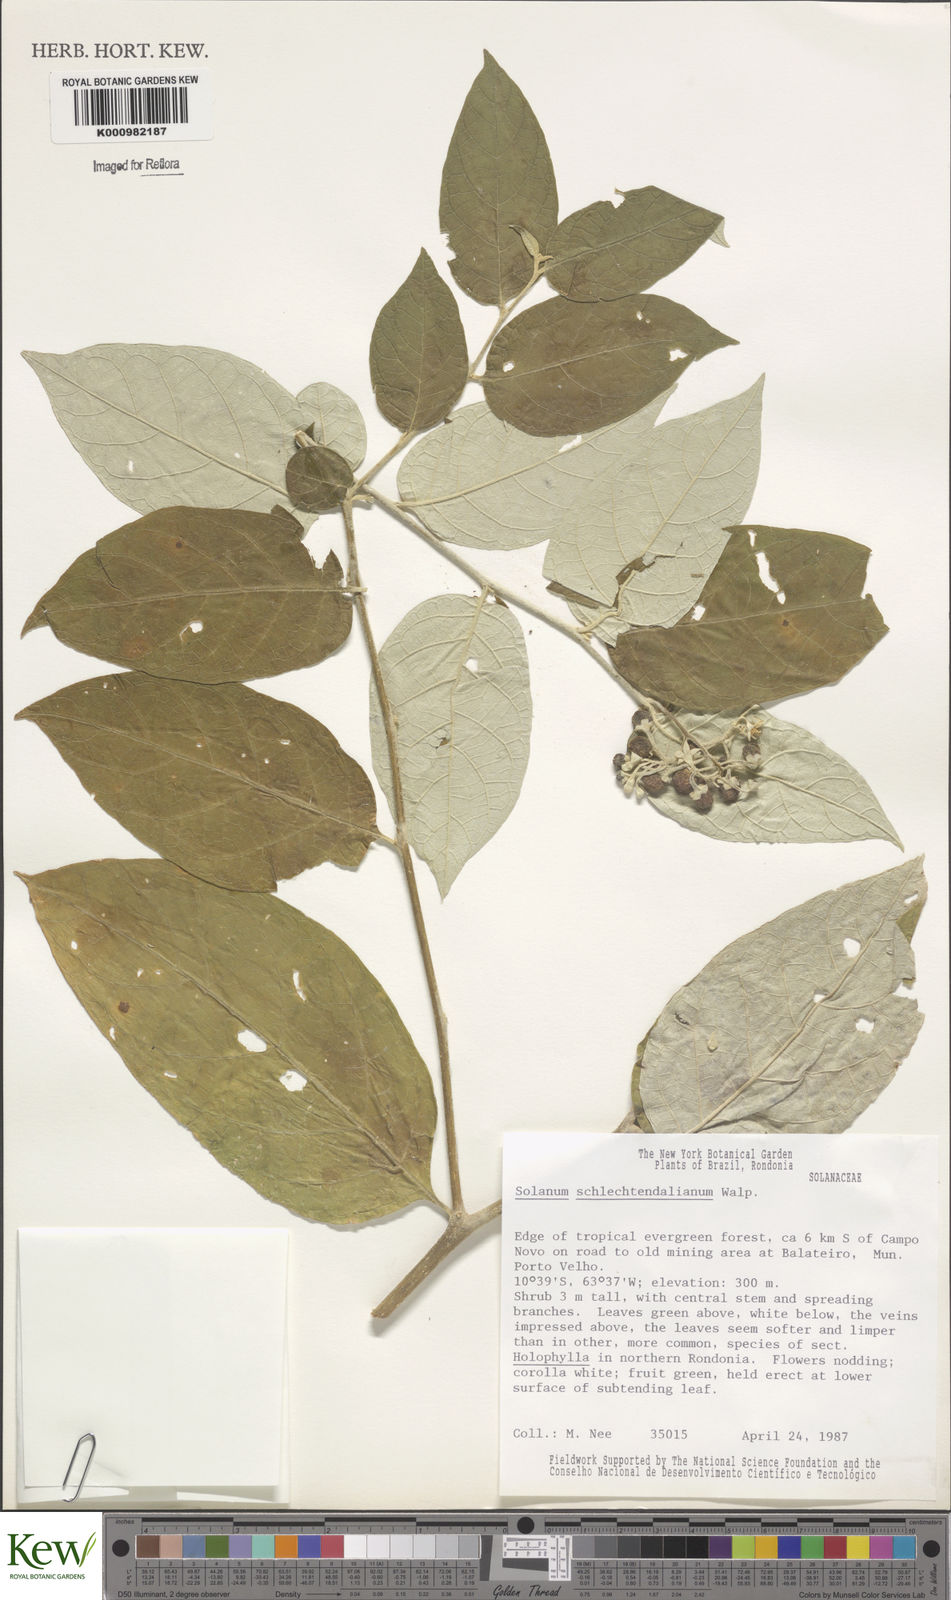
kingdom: Plantae
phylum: Tracheophyta
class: Magnoliopsida
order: Solanales
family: Solanaceae
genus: Solanum
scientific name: Solanum schlechtendalianum
